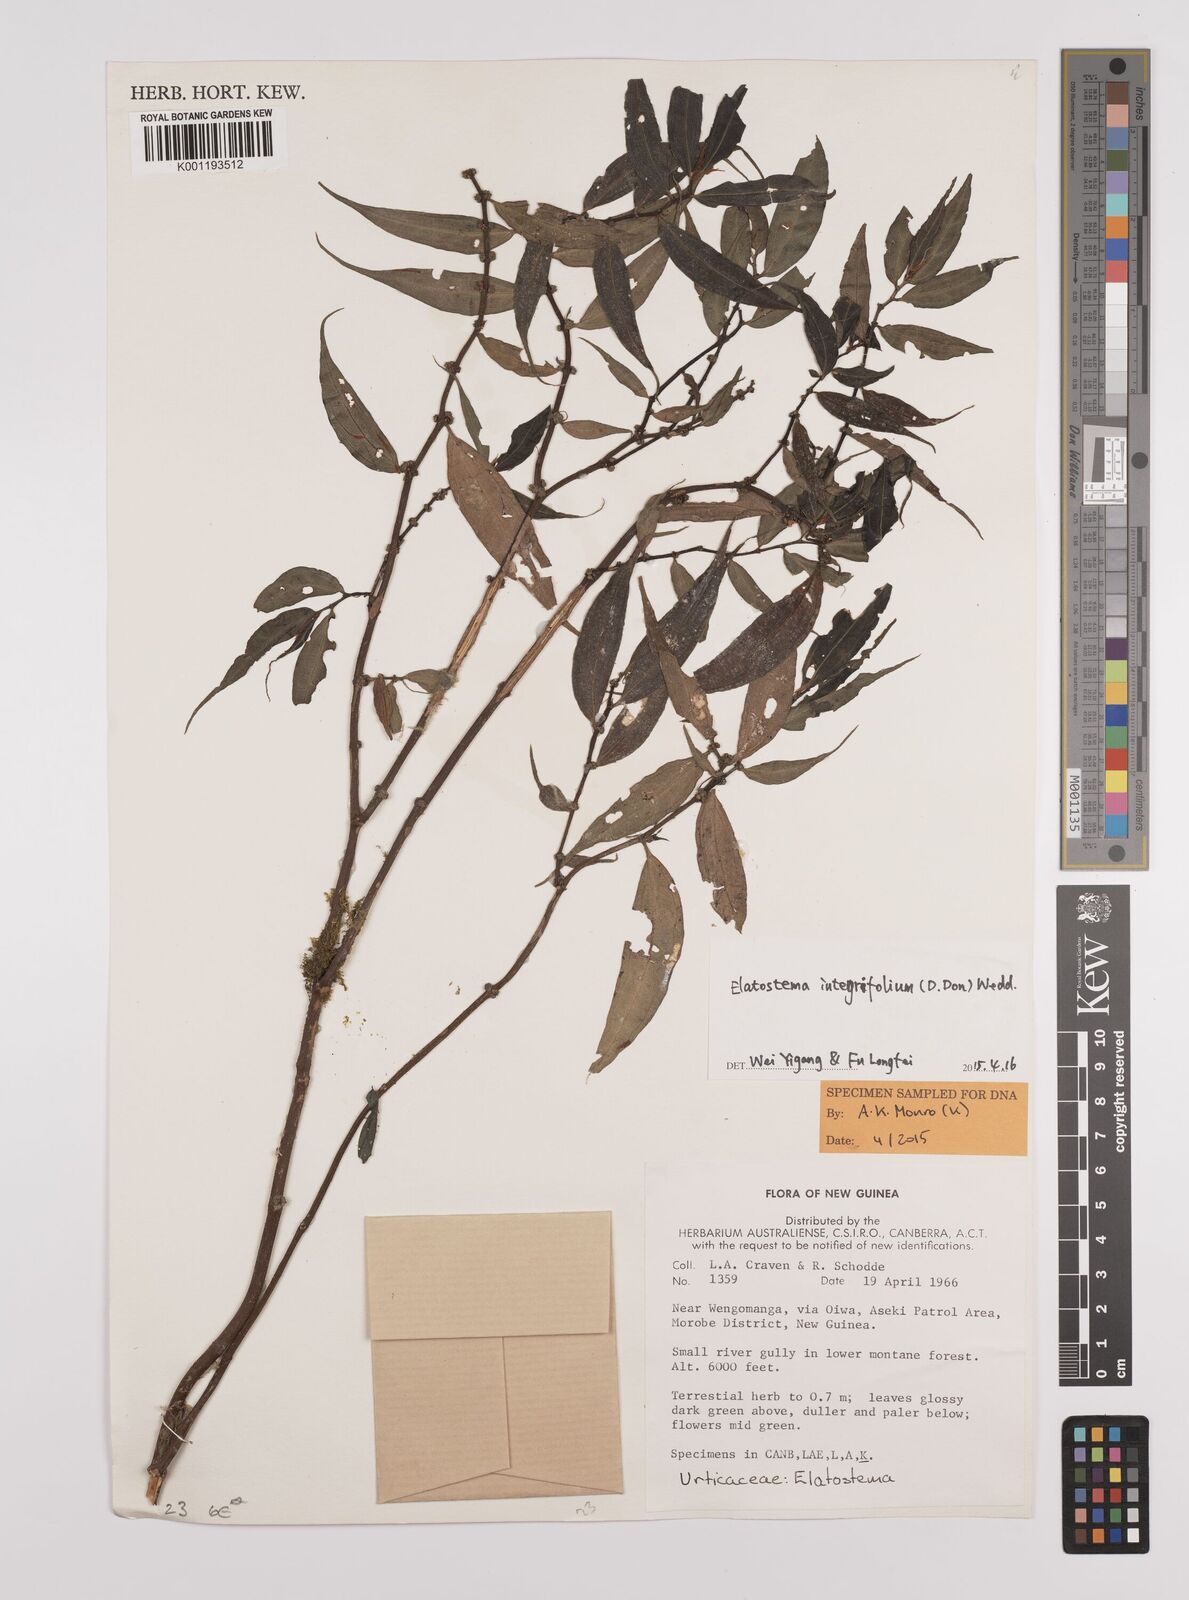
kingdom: Plantae
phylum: Tracheophyta
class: Magnoliopsida
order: Rosales
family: Urticaceae
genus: Elatostema
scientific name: Elatostema integrifolium
